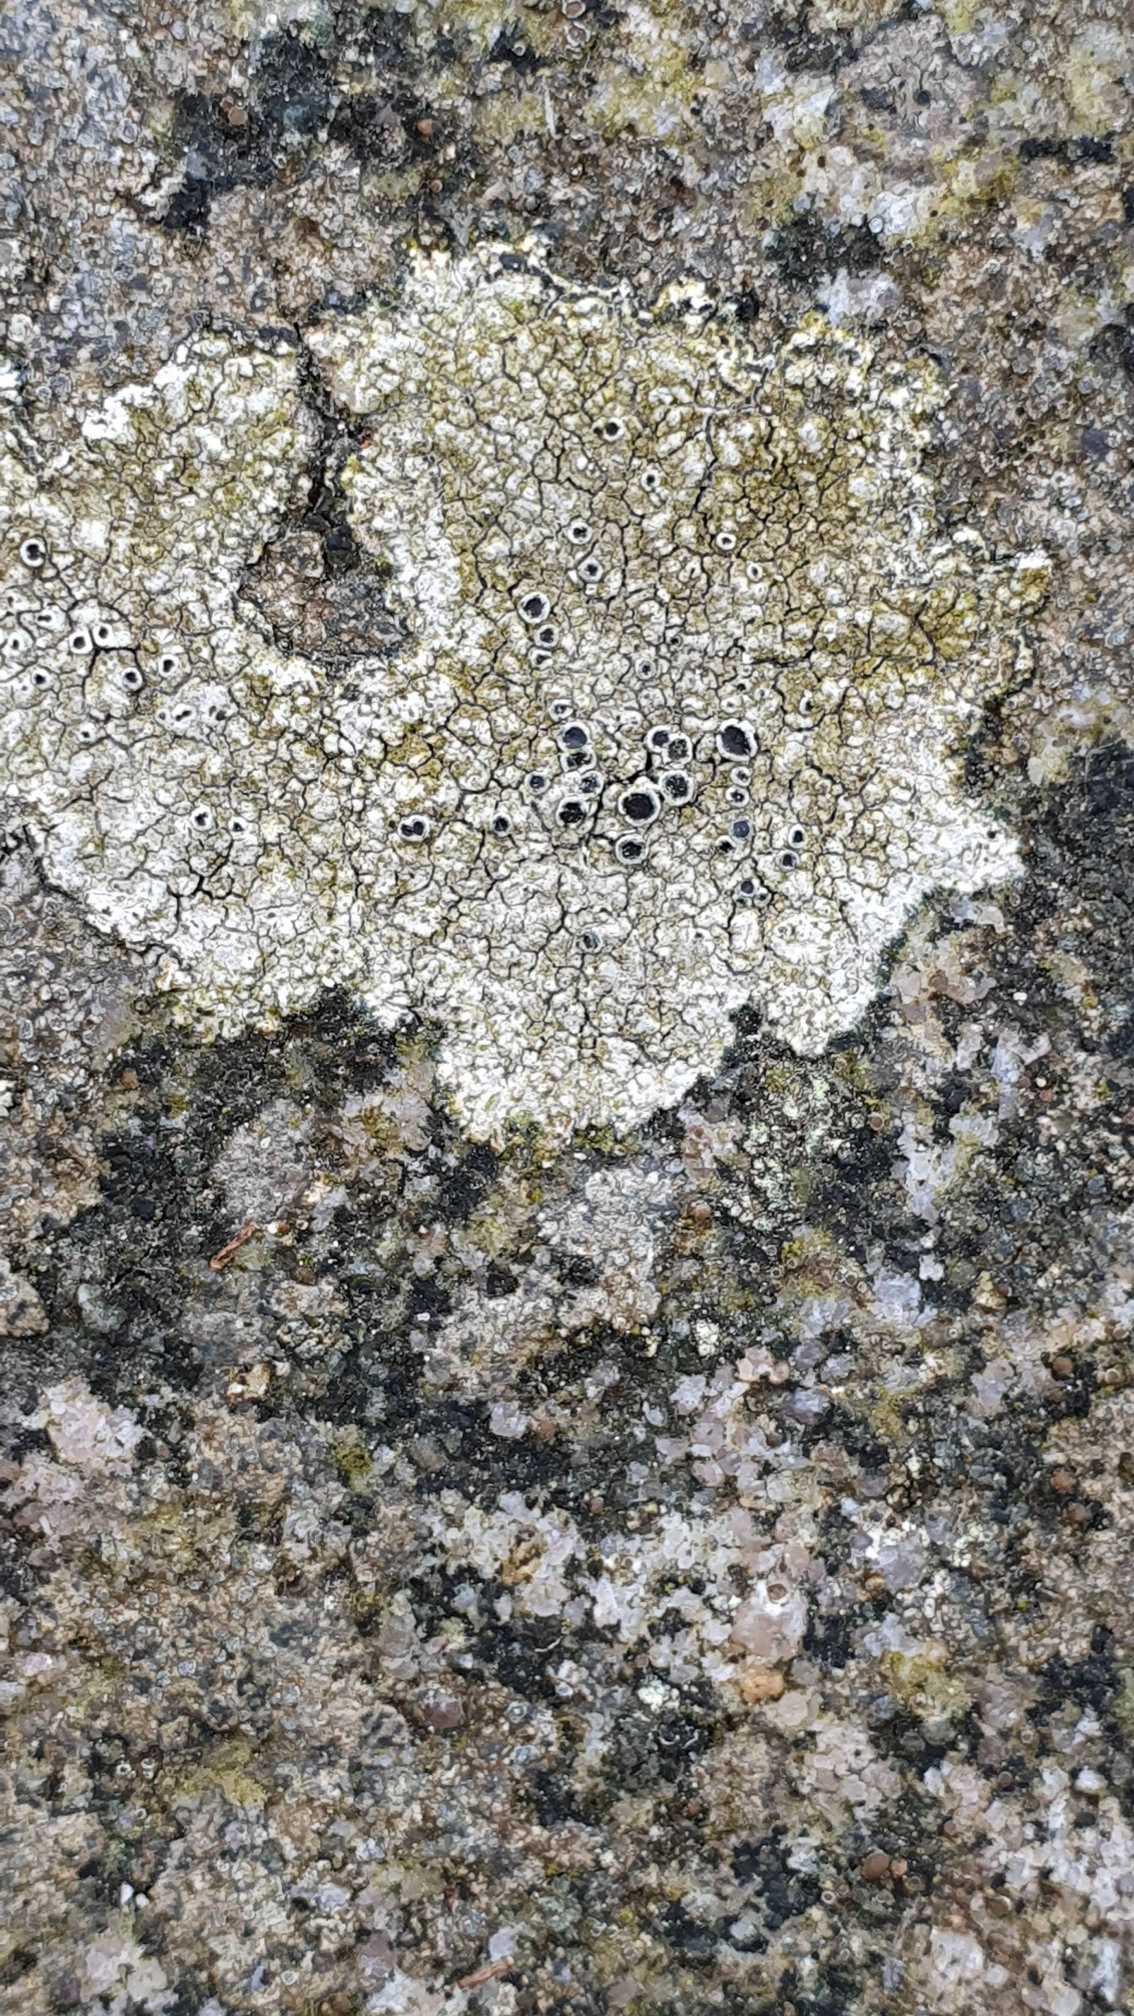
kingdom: Fungi
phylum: Ascomycota
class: Lecanoromycetes
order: Lecanorales
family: Tephromelataceae
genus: Tephromela
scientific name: Tephromela atra
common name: Sortfrugtet kantskivelav
